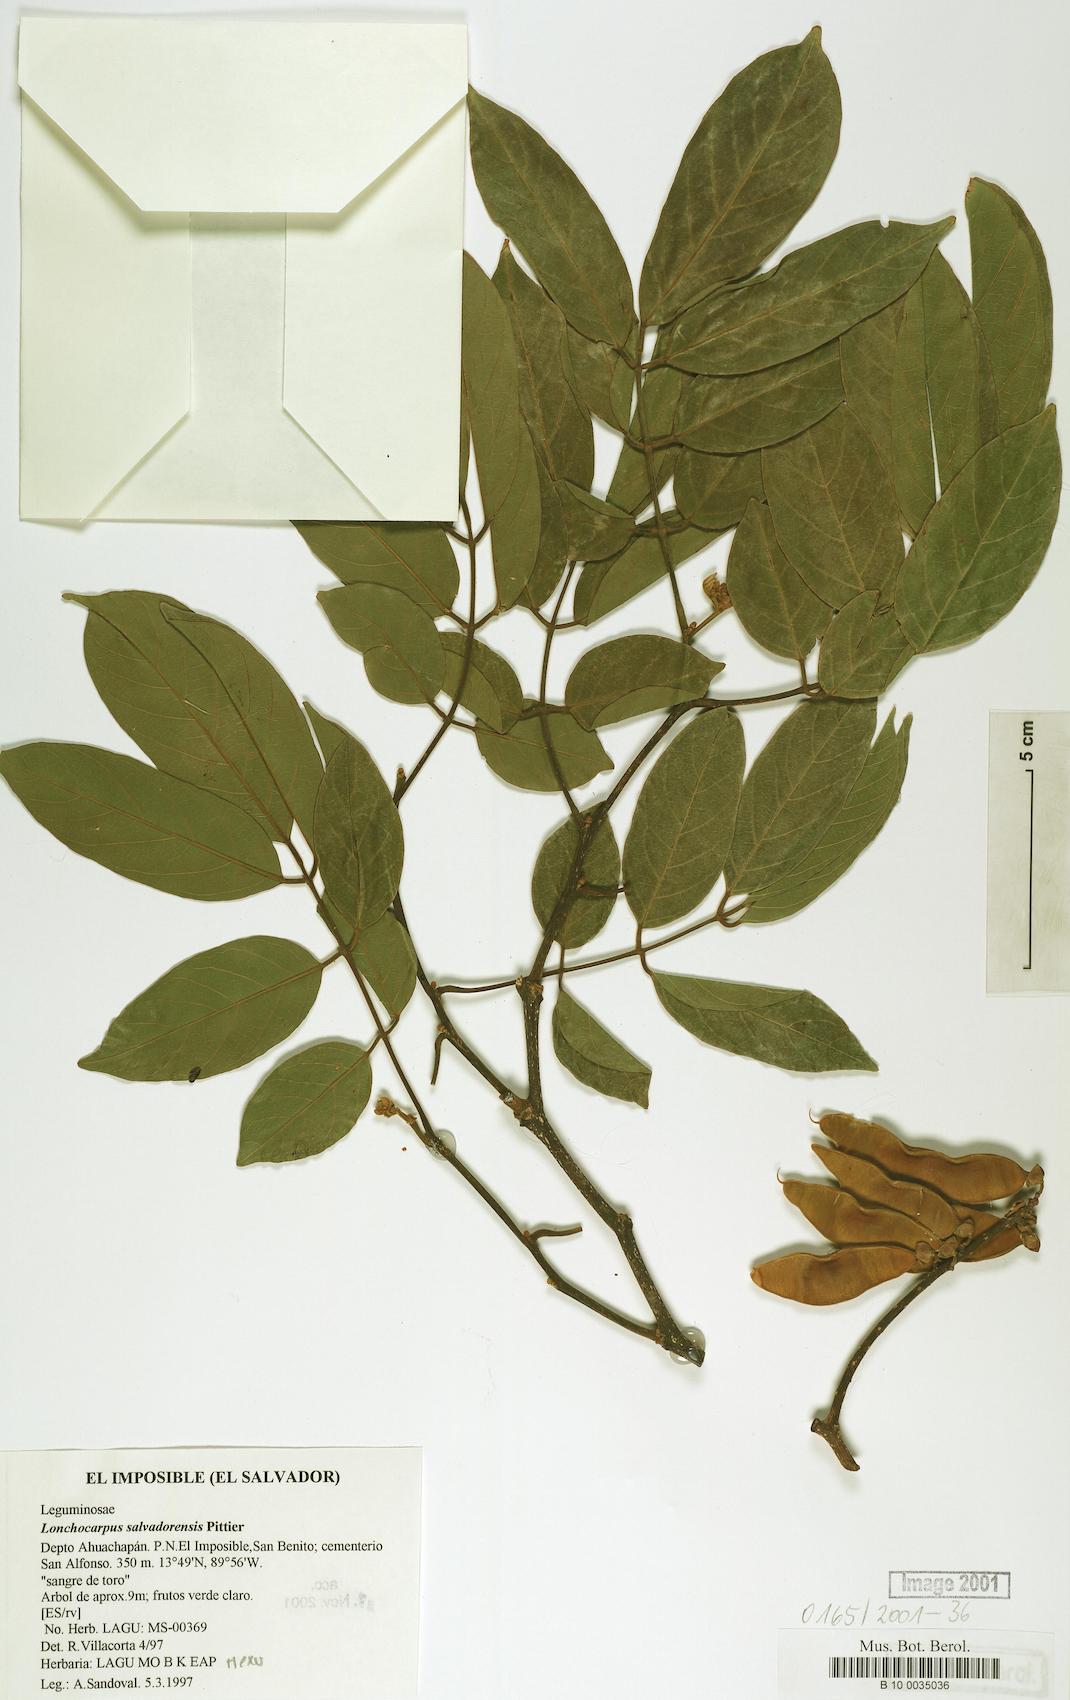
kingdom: Plantae
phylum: Tracheophyta
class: Magnoliopsida
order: Fabales
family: Fabaceae
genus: Lonchocarpus
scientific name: Lonchocarpus salvadorensis
